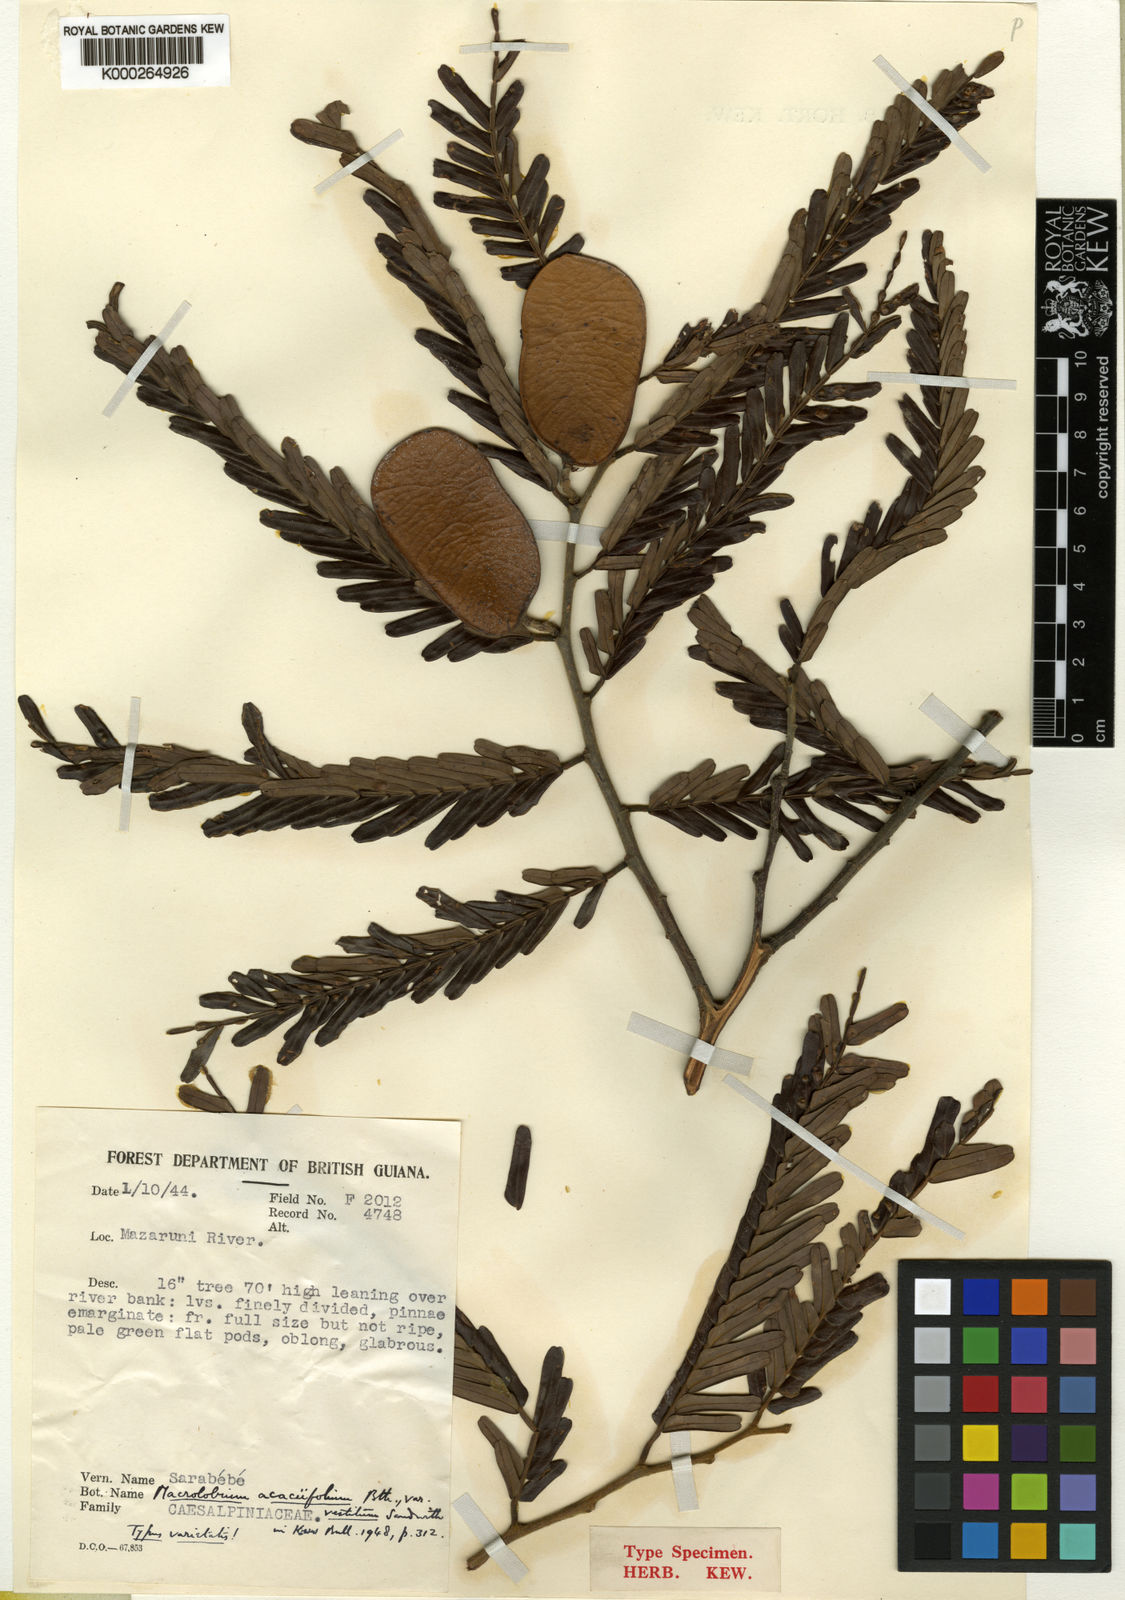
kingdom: Plantae
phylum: Tracheophyta
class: Magnoliopsida
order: Fabales
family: Fabaceae
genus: Macrolobium
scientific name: Macrolobium acaciifolium
